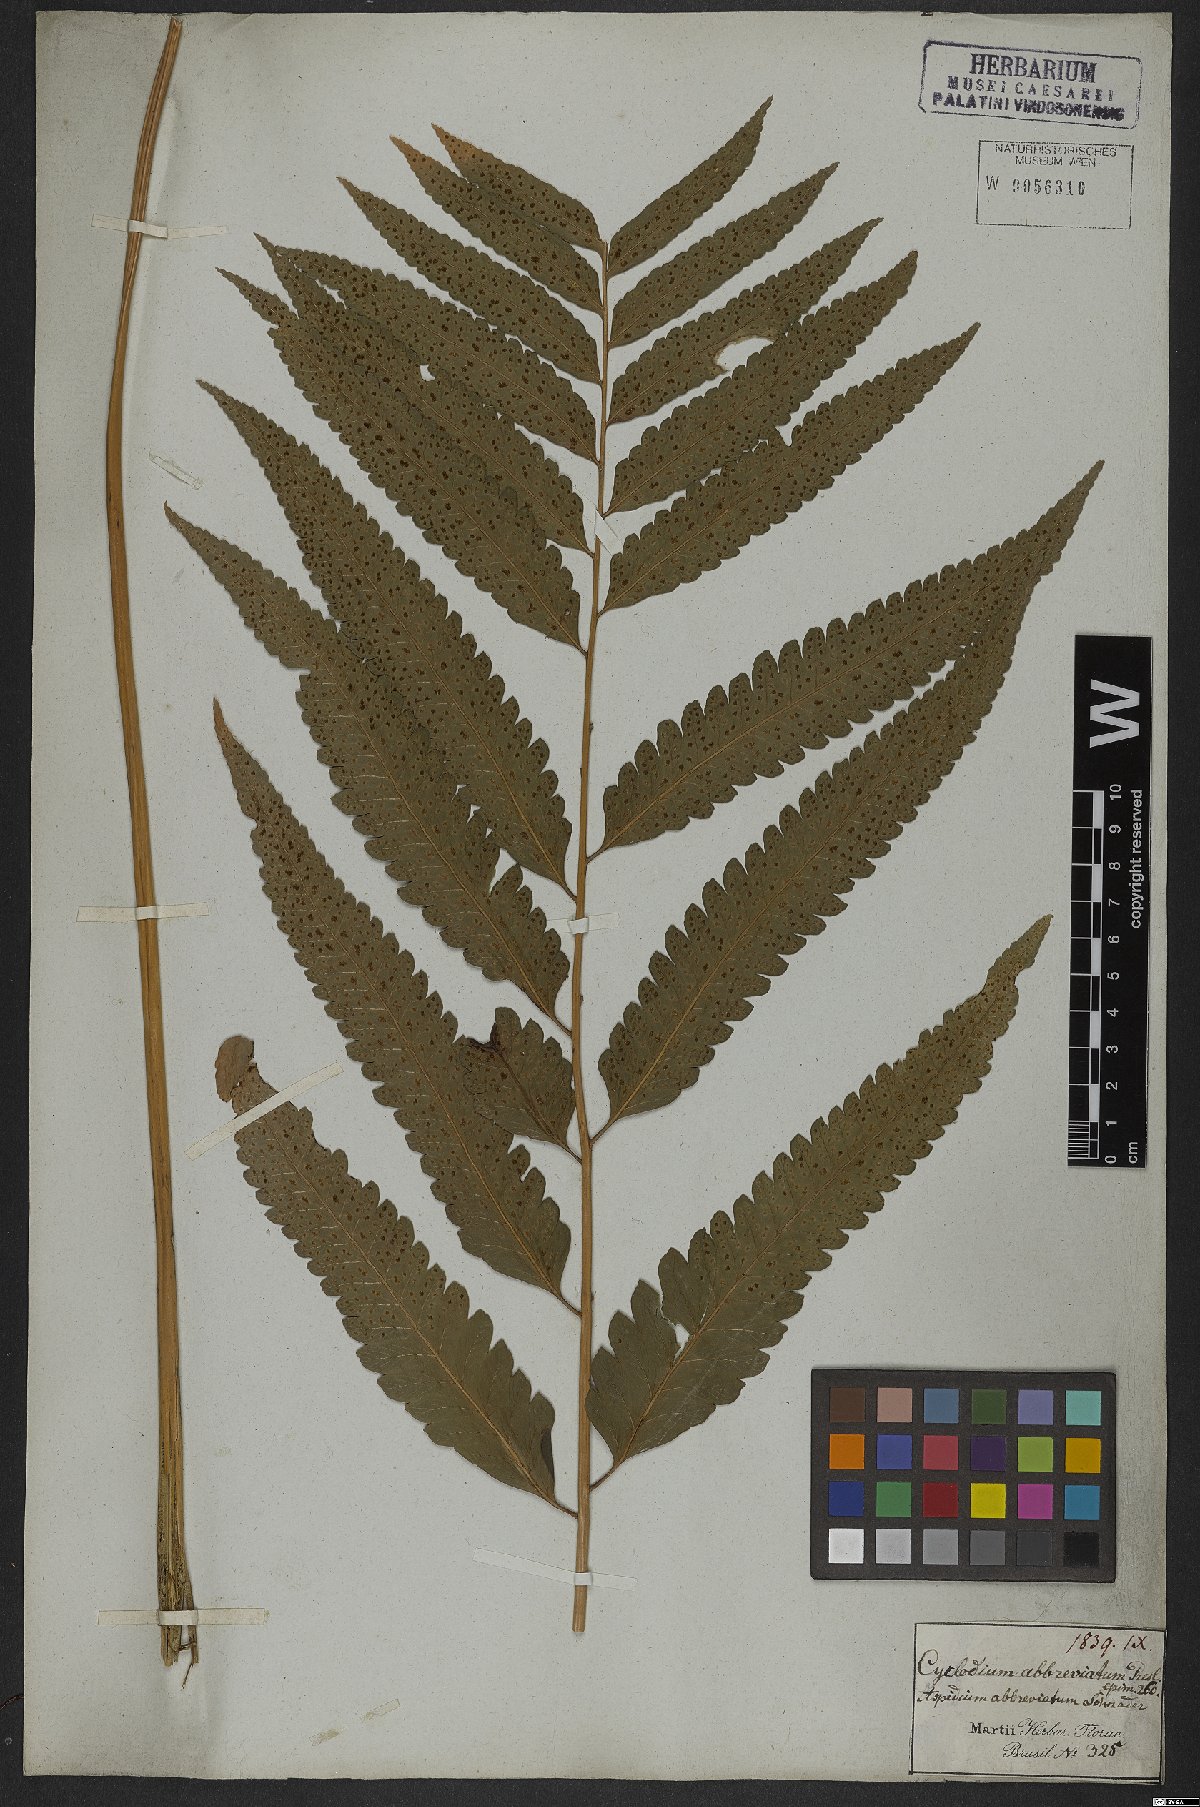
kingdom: Plantae
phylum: Tracheophyta
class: Polypodiopsida
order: Polypodiales
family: Dryopteridaceae
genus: Cyclodium
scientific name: Cyclodium guianense
